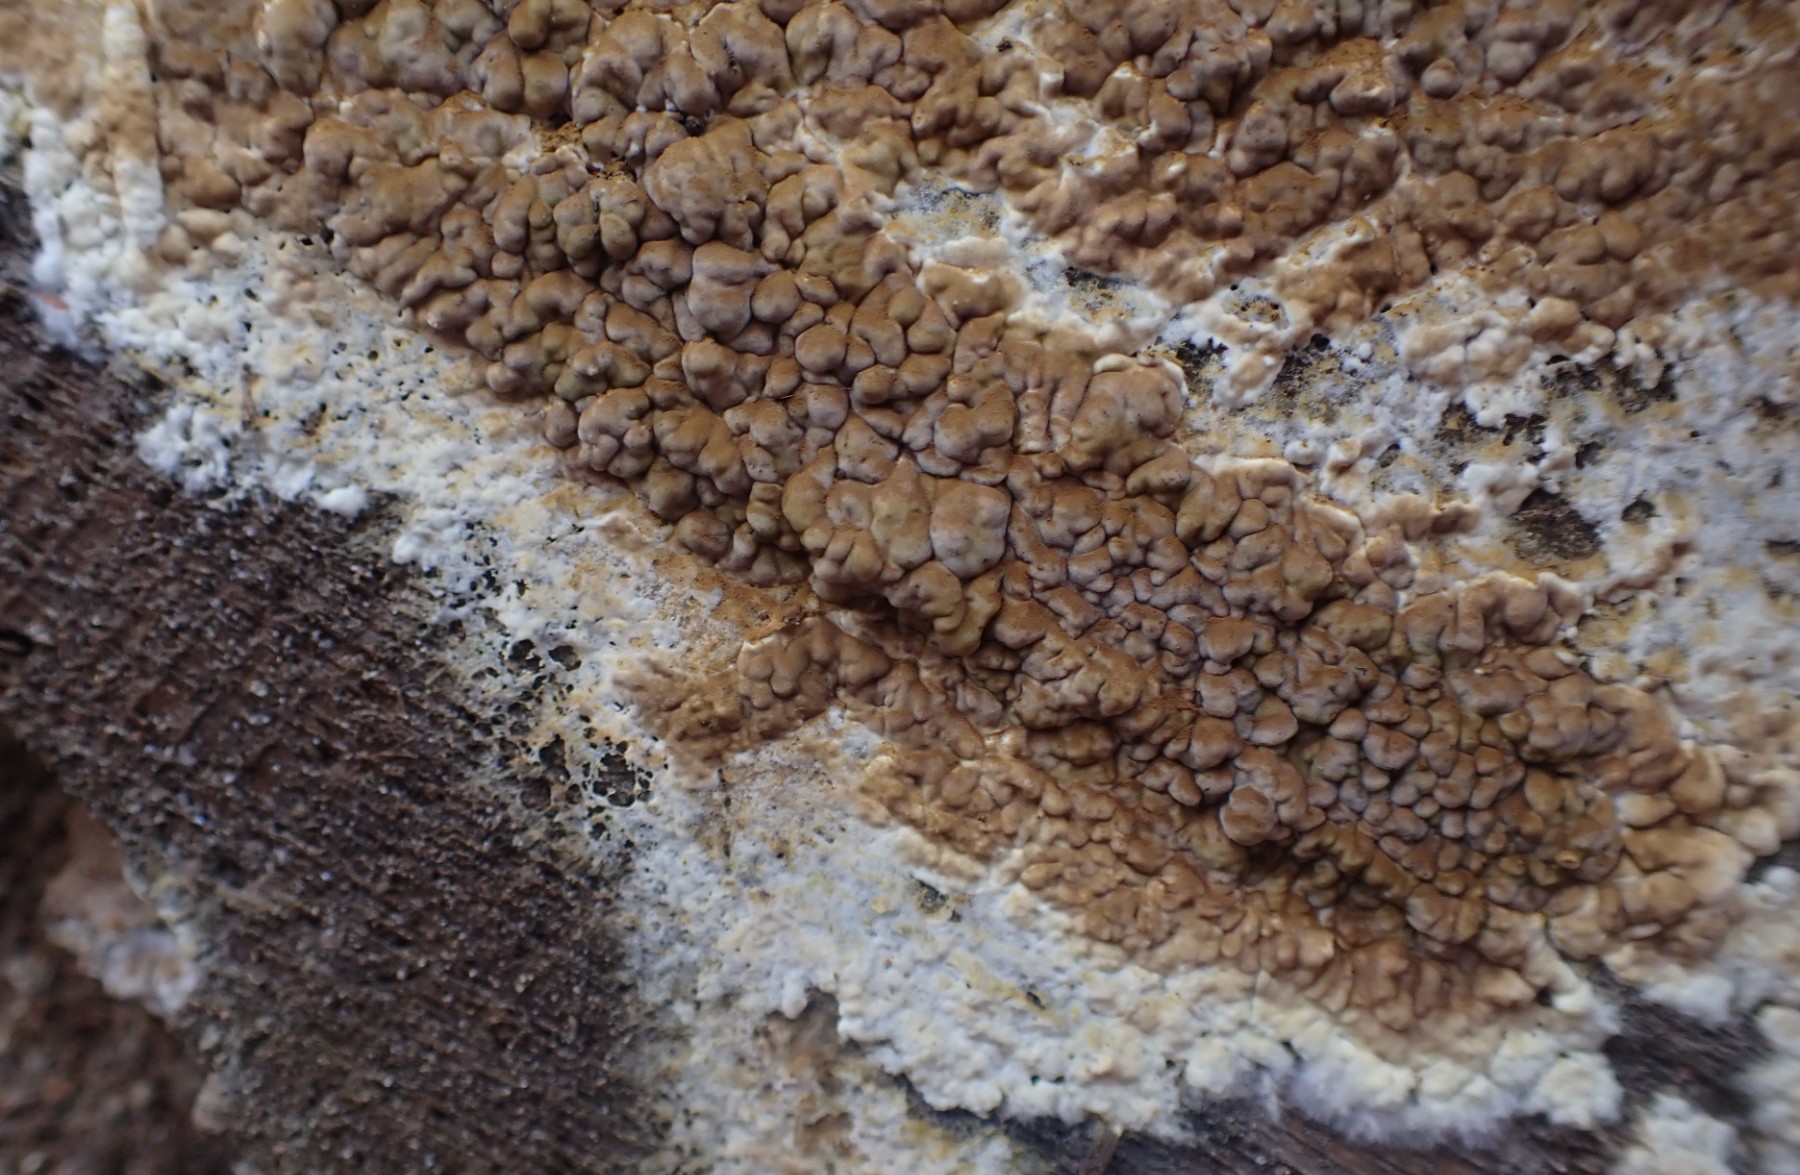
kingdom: Fungi
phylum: Basidiomycota
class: Agaricomycetes
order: Boletales
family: Coniophoraceae
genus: Coniophora
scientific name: Coniophora puteana
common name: gul tømmersvamp
